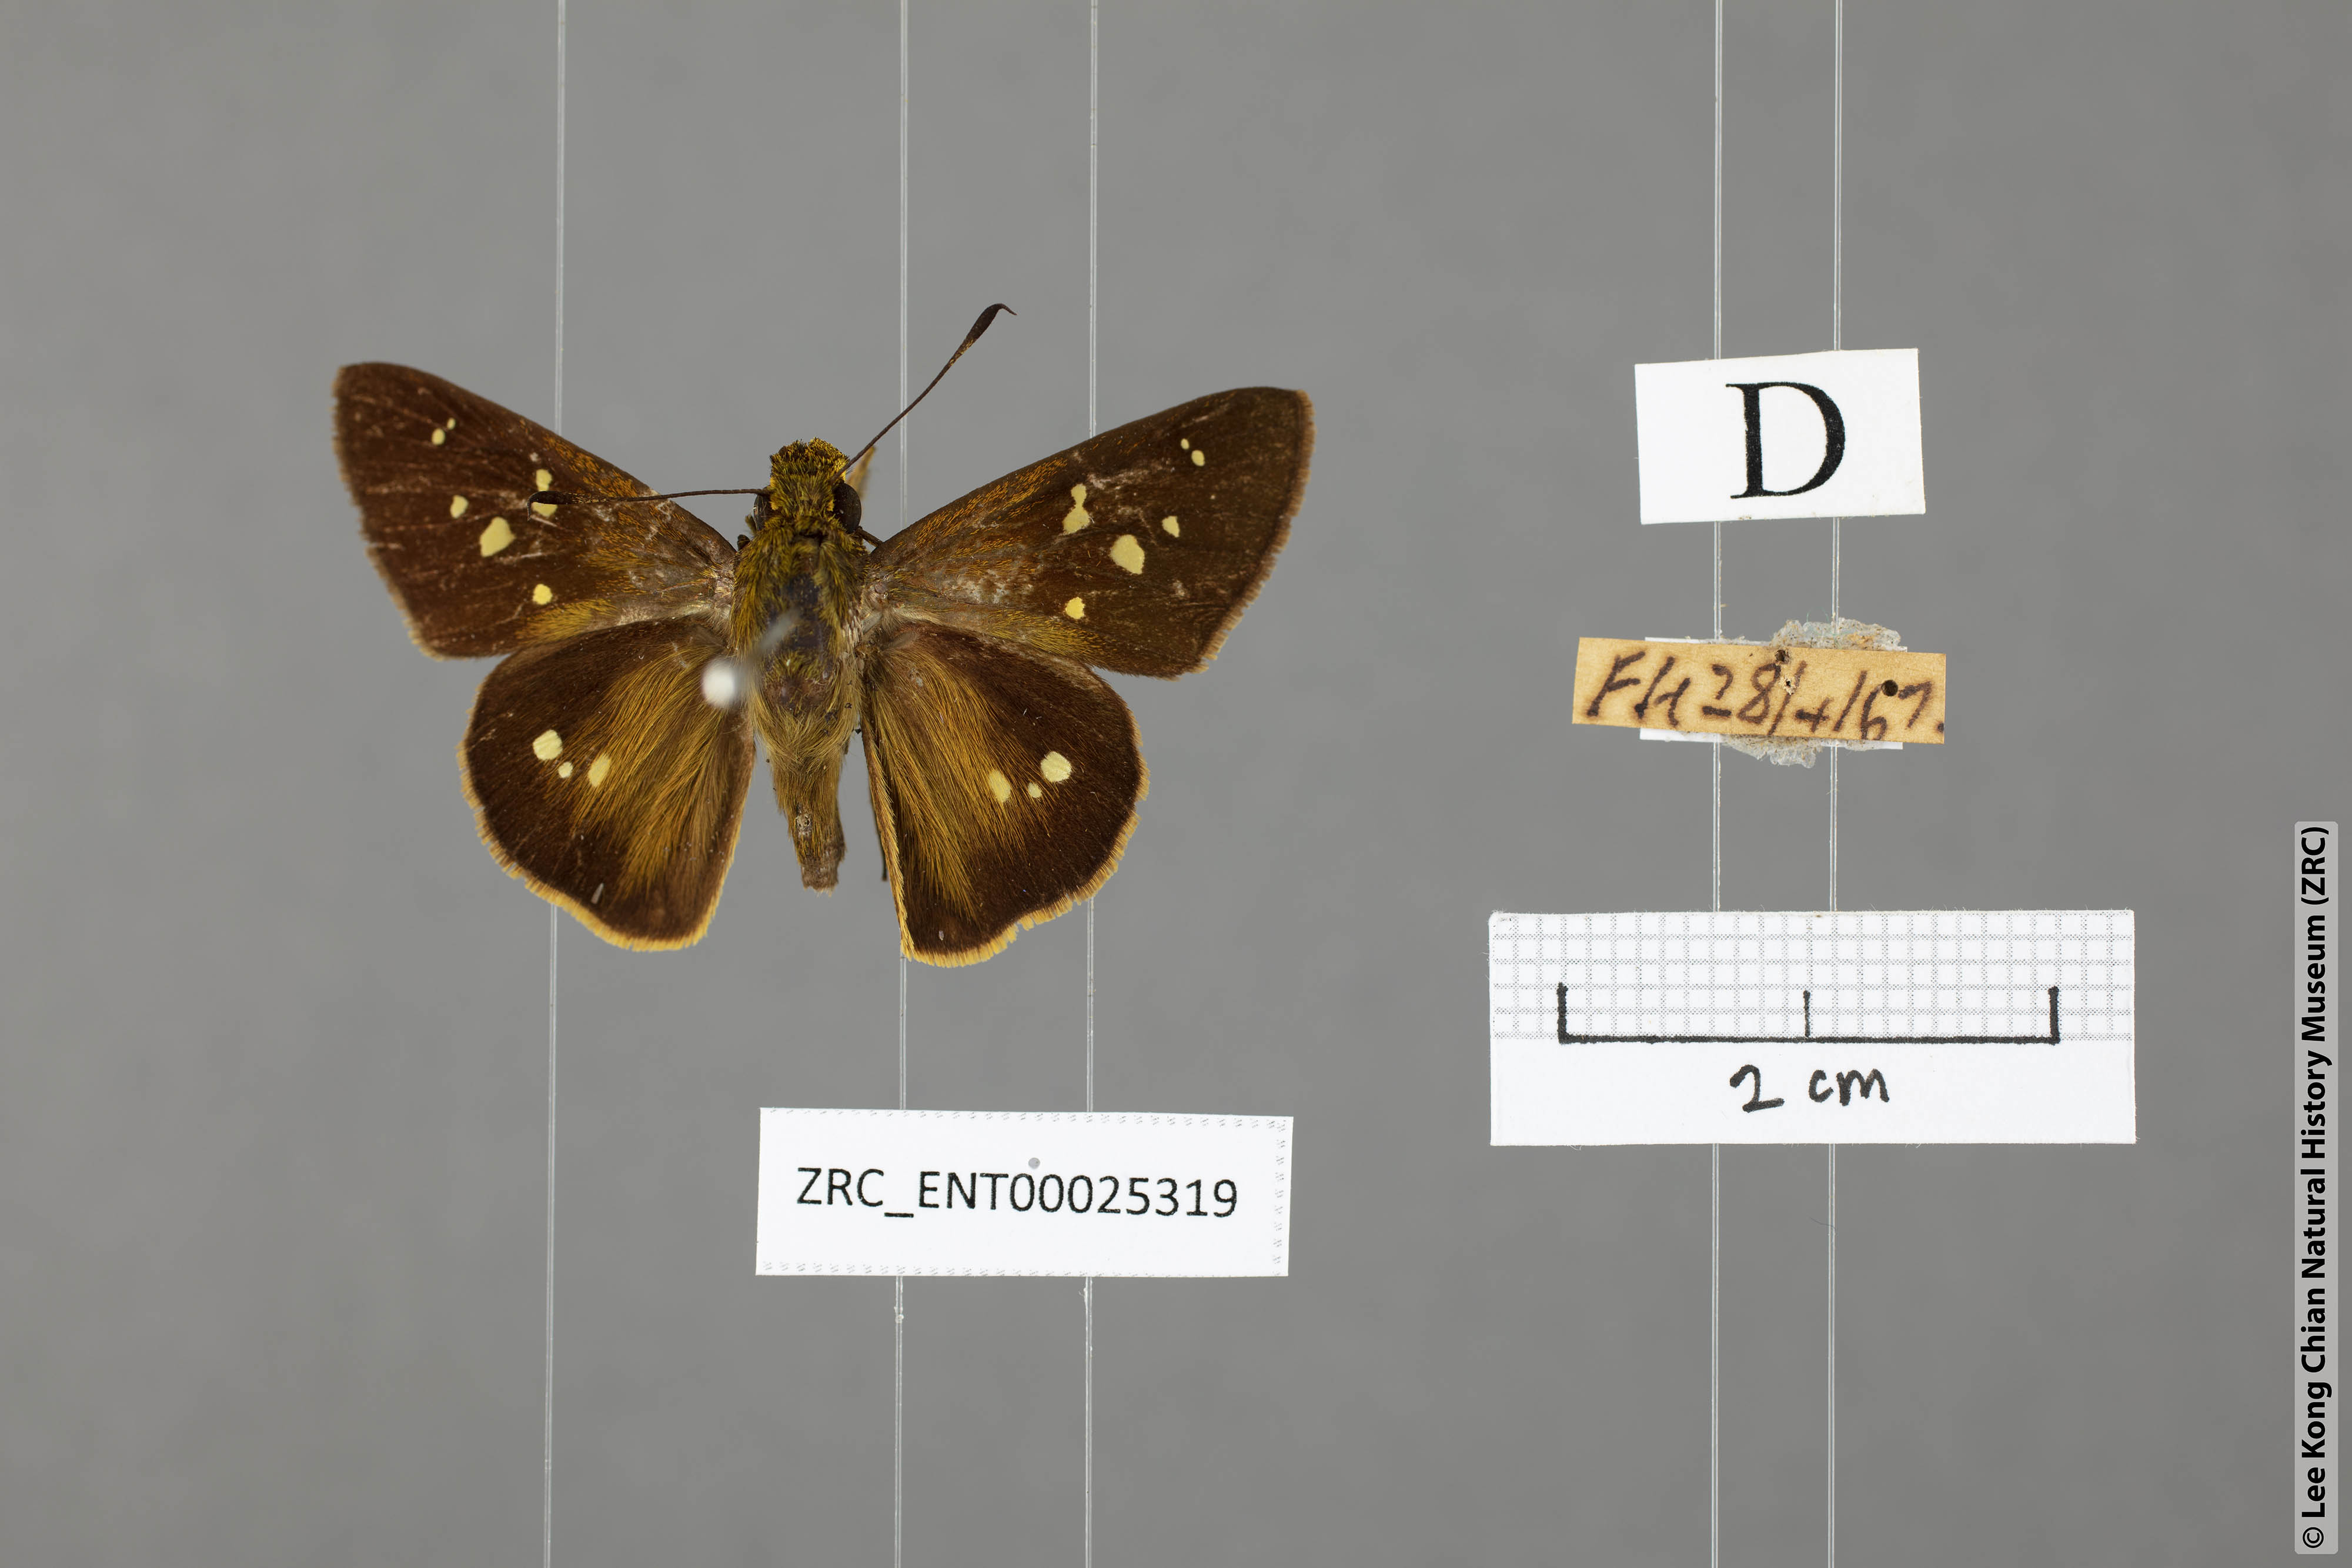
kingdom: Animalia
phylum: Arthropoda
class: Insecta
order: Lepidoptera
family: Hesperiidae
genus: Polytremis
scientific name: Polytremis eltola
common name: Yellow-spot swift
